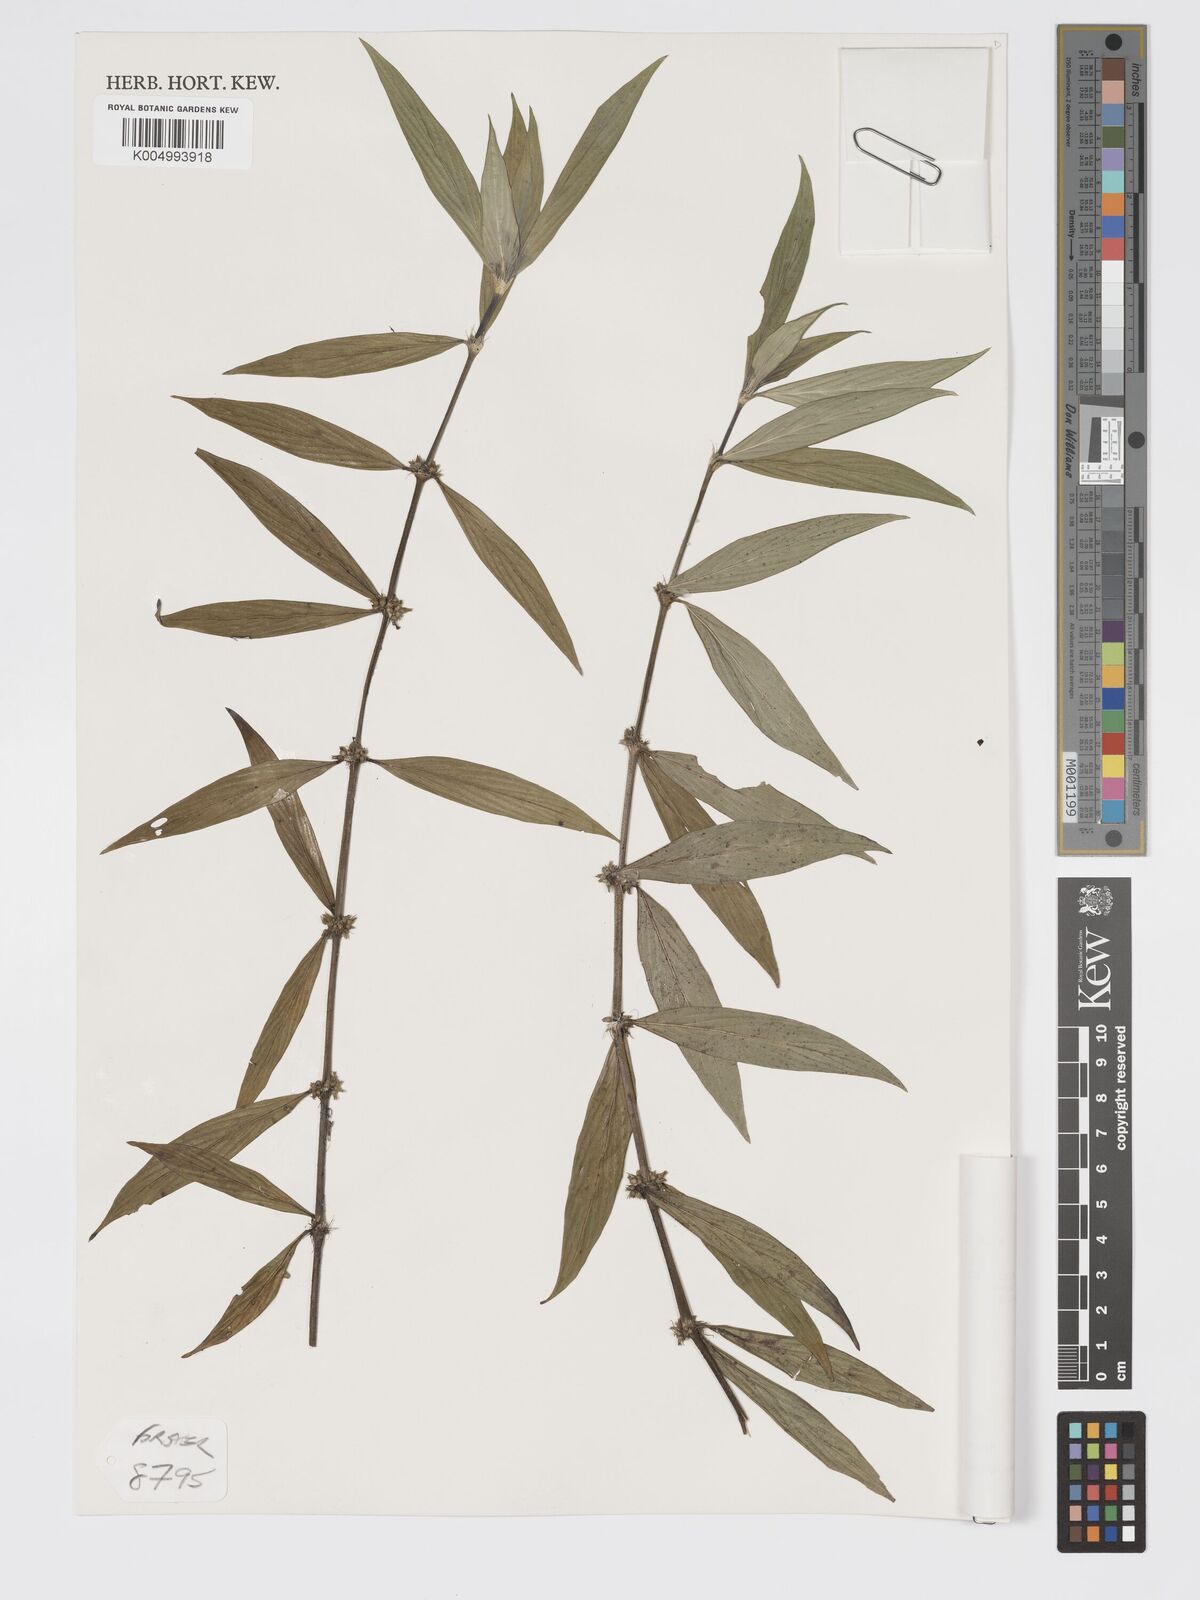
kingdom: Plantae
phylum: Tracheophyta
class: Magnoliopsida
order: Gentianales
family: Rubiaceae
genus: Exallage
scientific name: Exallage lapeyrousei
